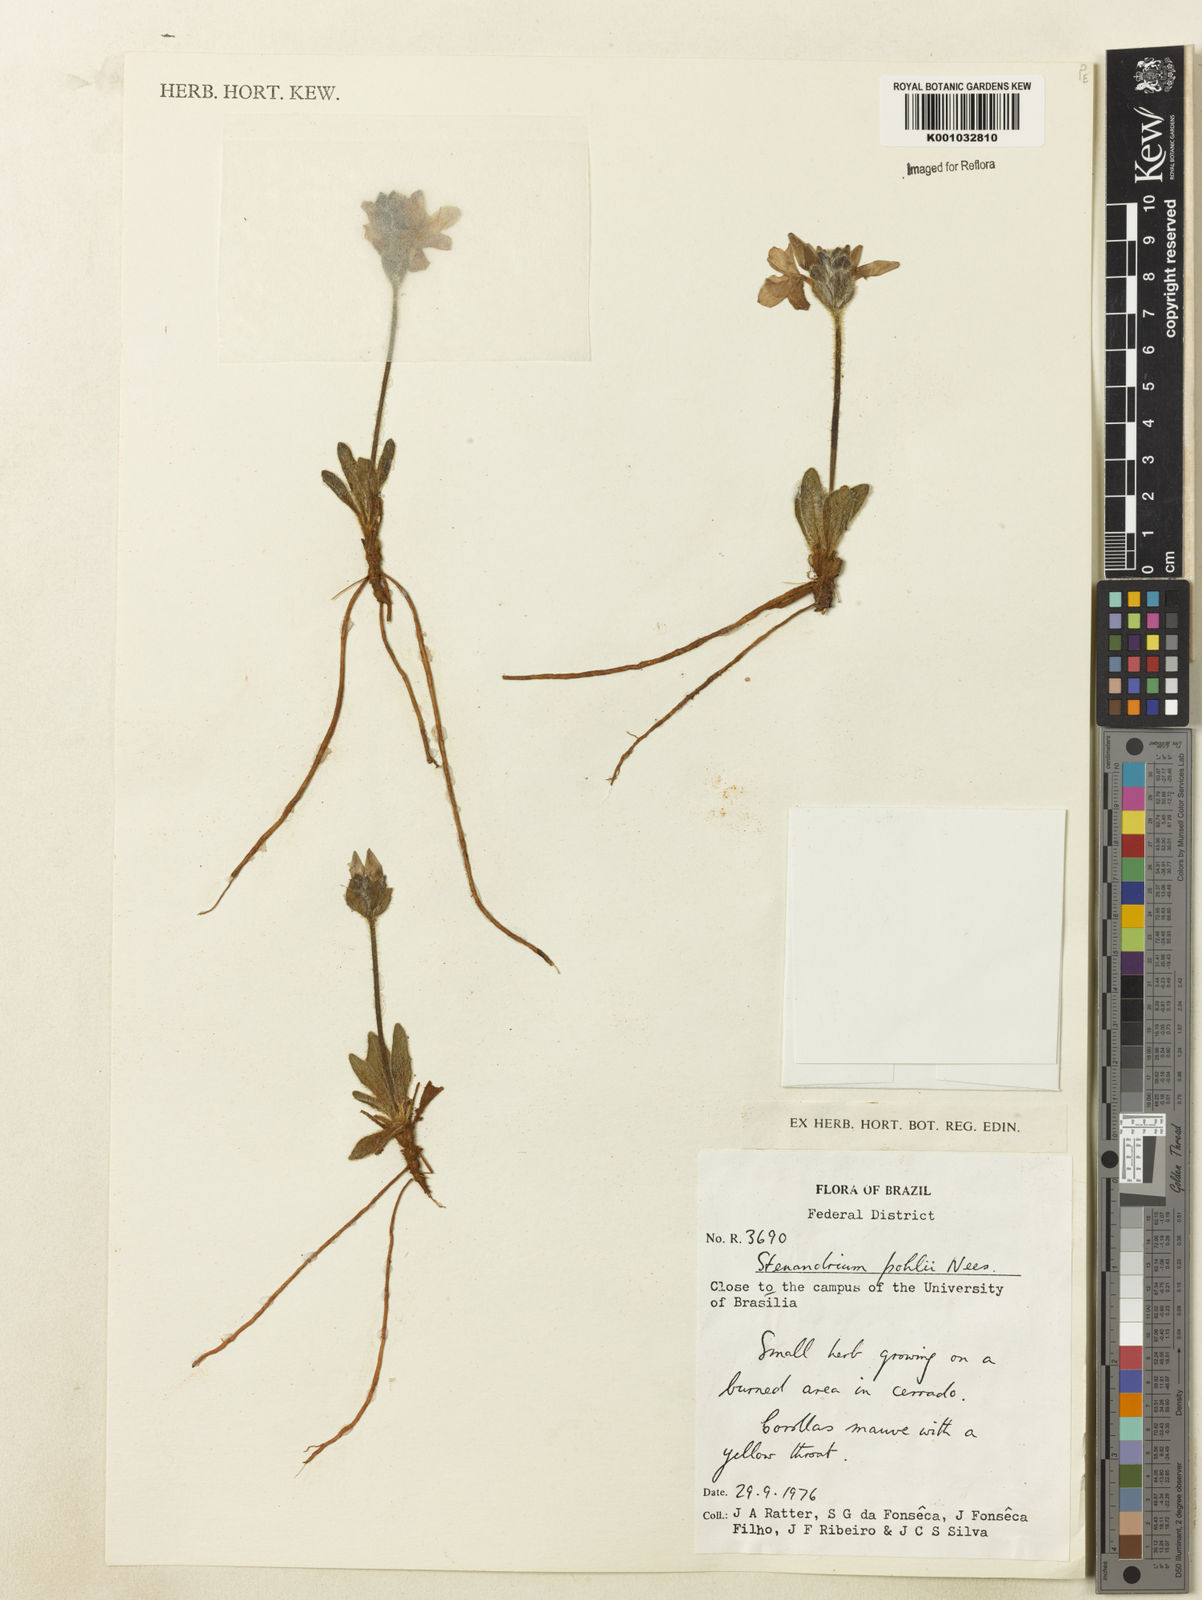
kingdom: Plantae
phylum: Tracheophyta
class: Magnoliopsida
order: Lamiales
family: Acanthaceae
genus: Stenandrium
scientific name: Stenandrium pohlii
